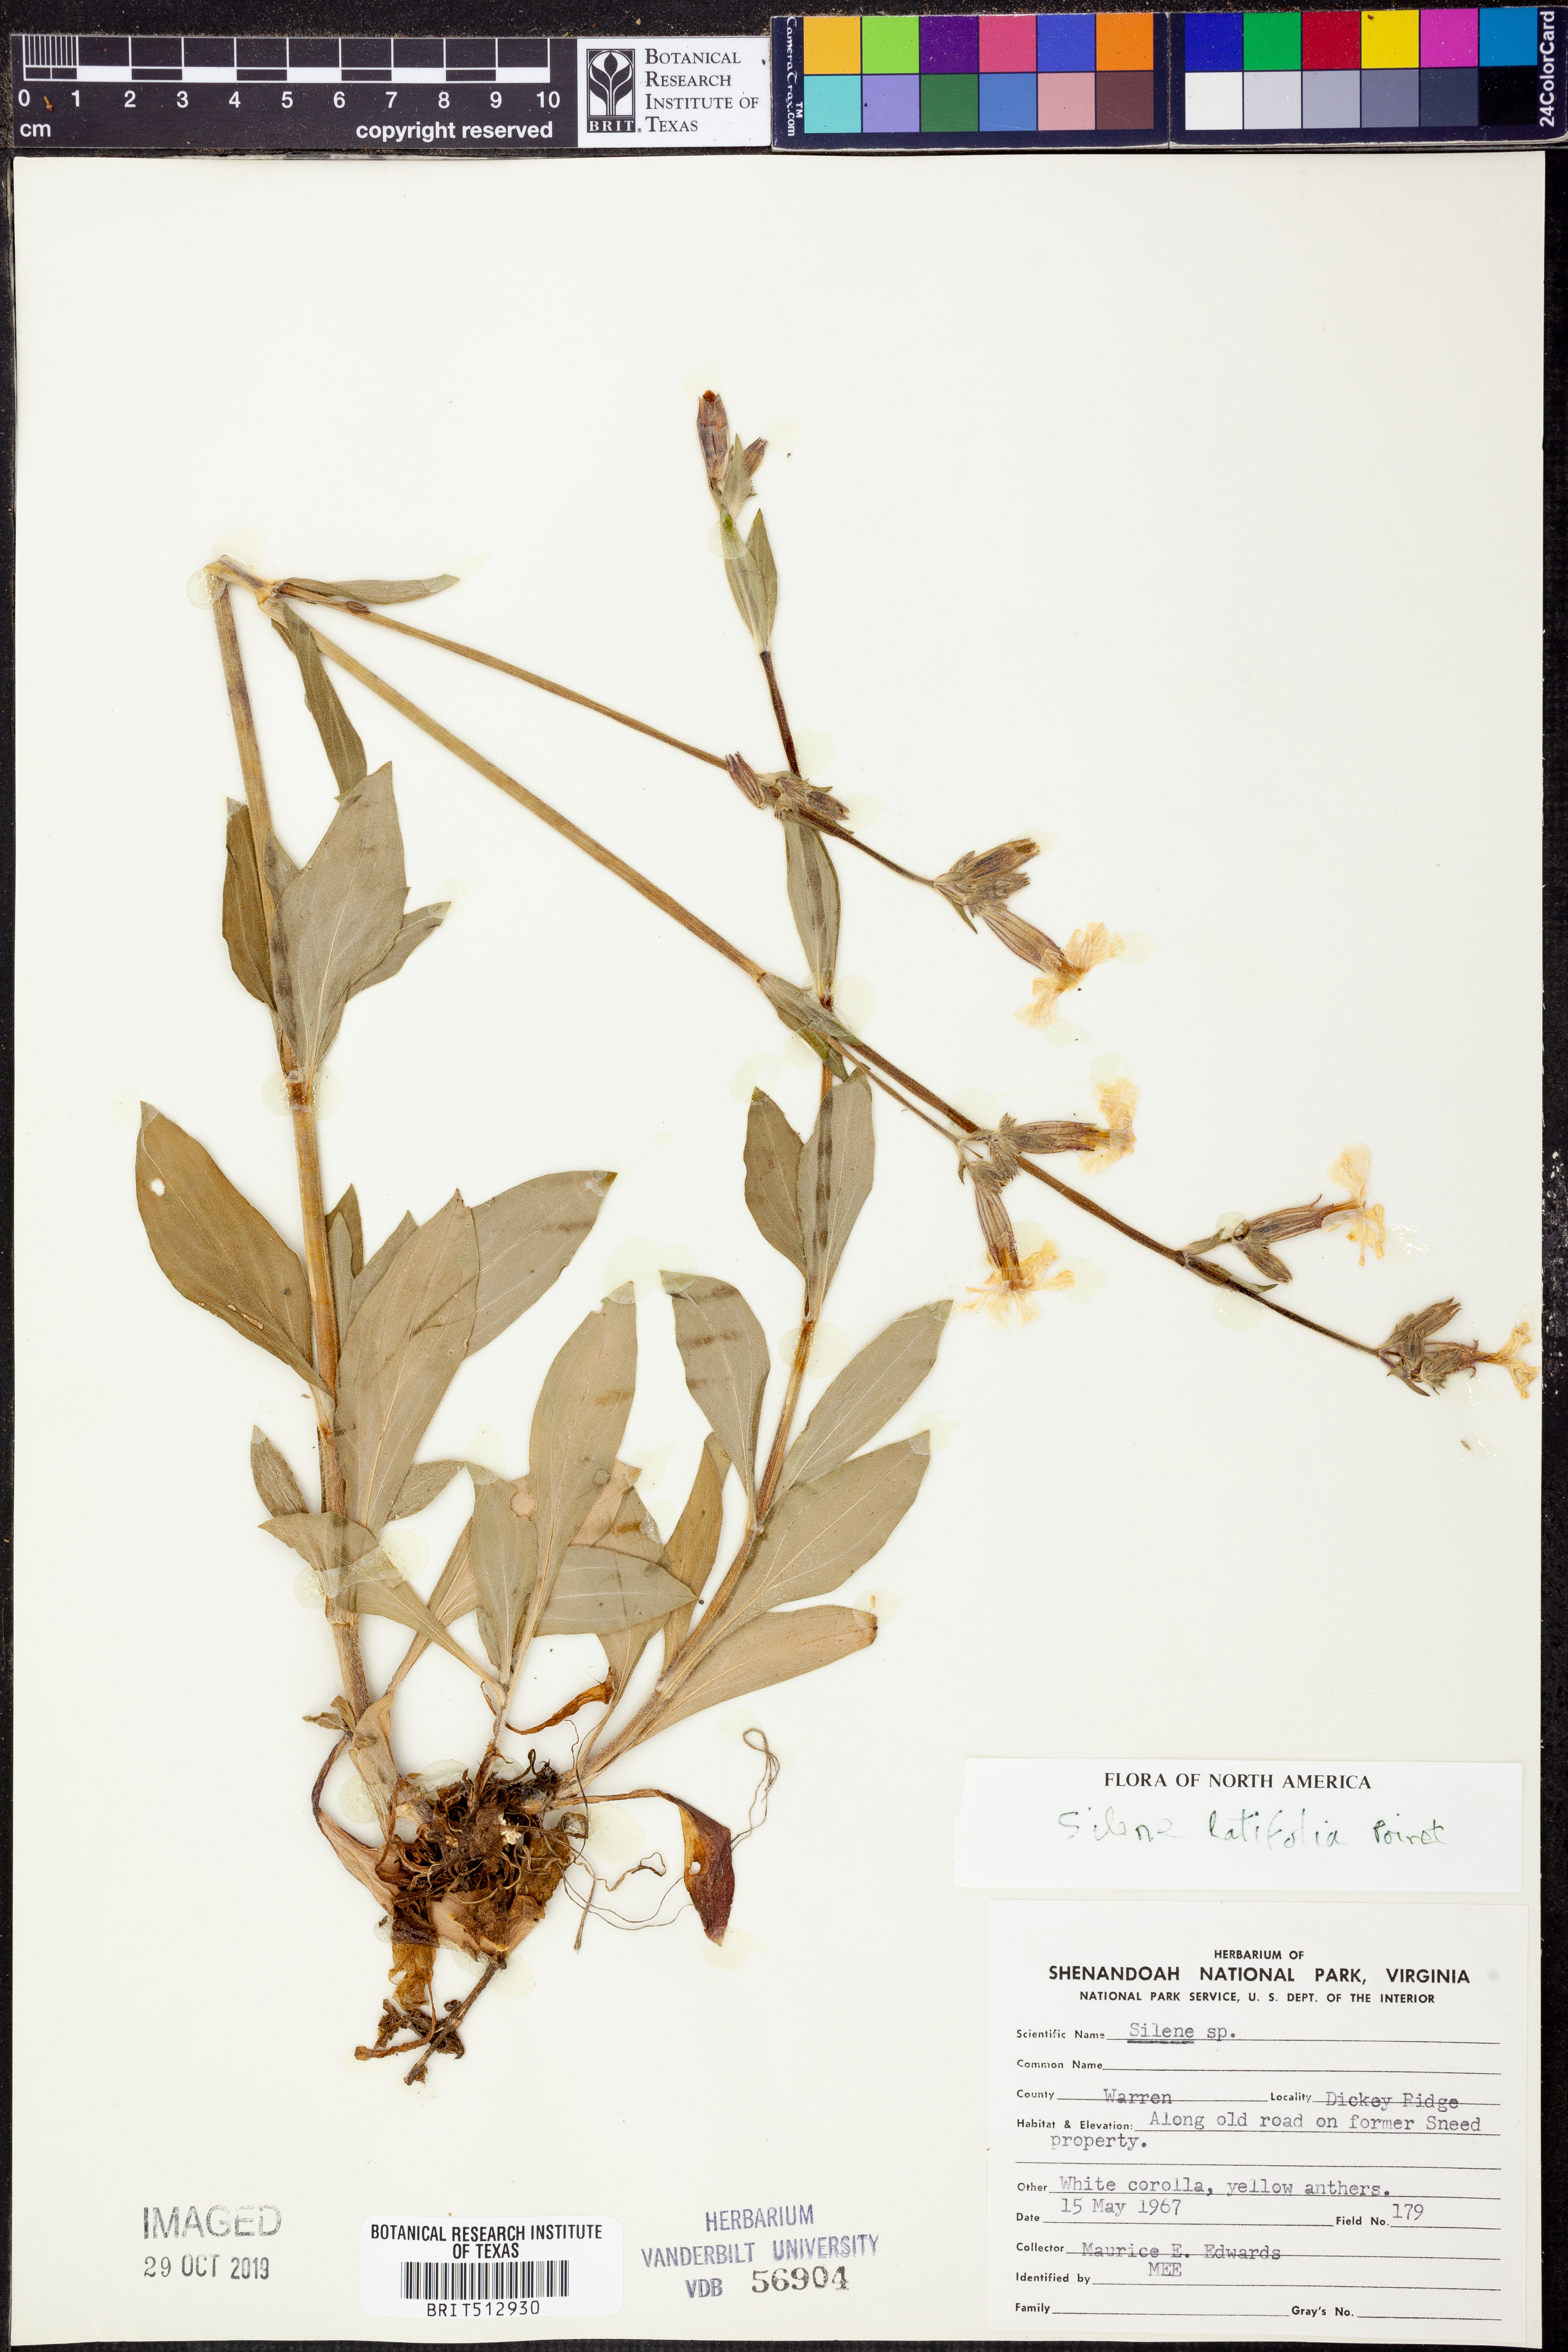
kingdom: Plantae
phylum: Tracheophyta
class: Magnoliopsida
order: Caryophyllales
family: Caryophyllaceae
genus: Silene
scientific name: Silene latifolia
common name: White campion
